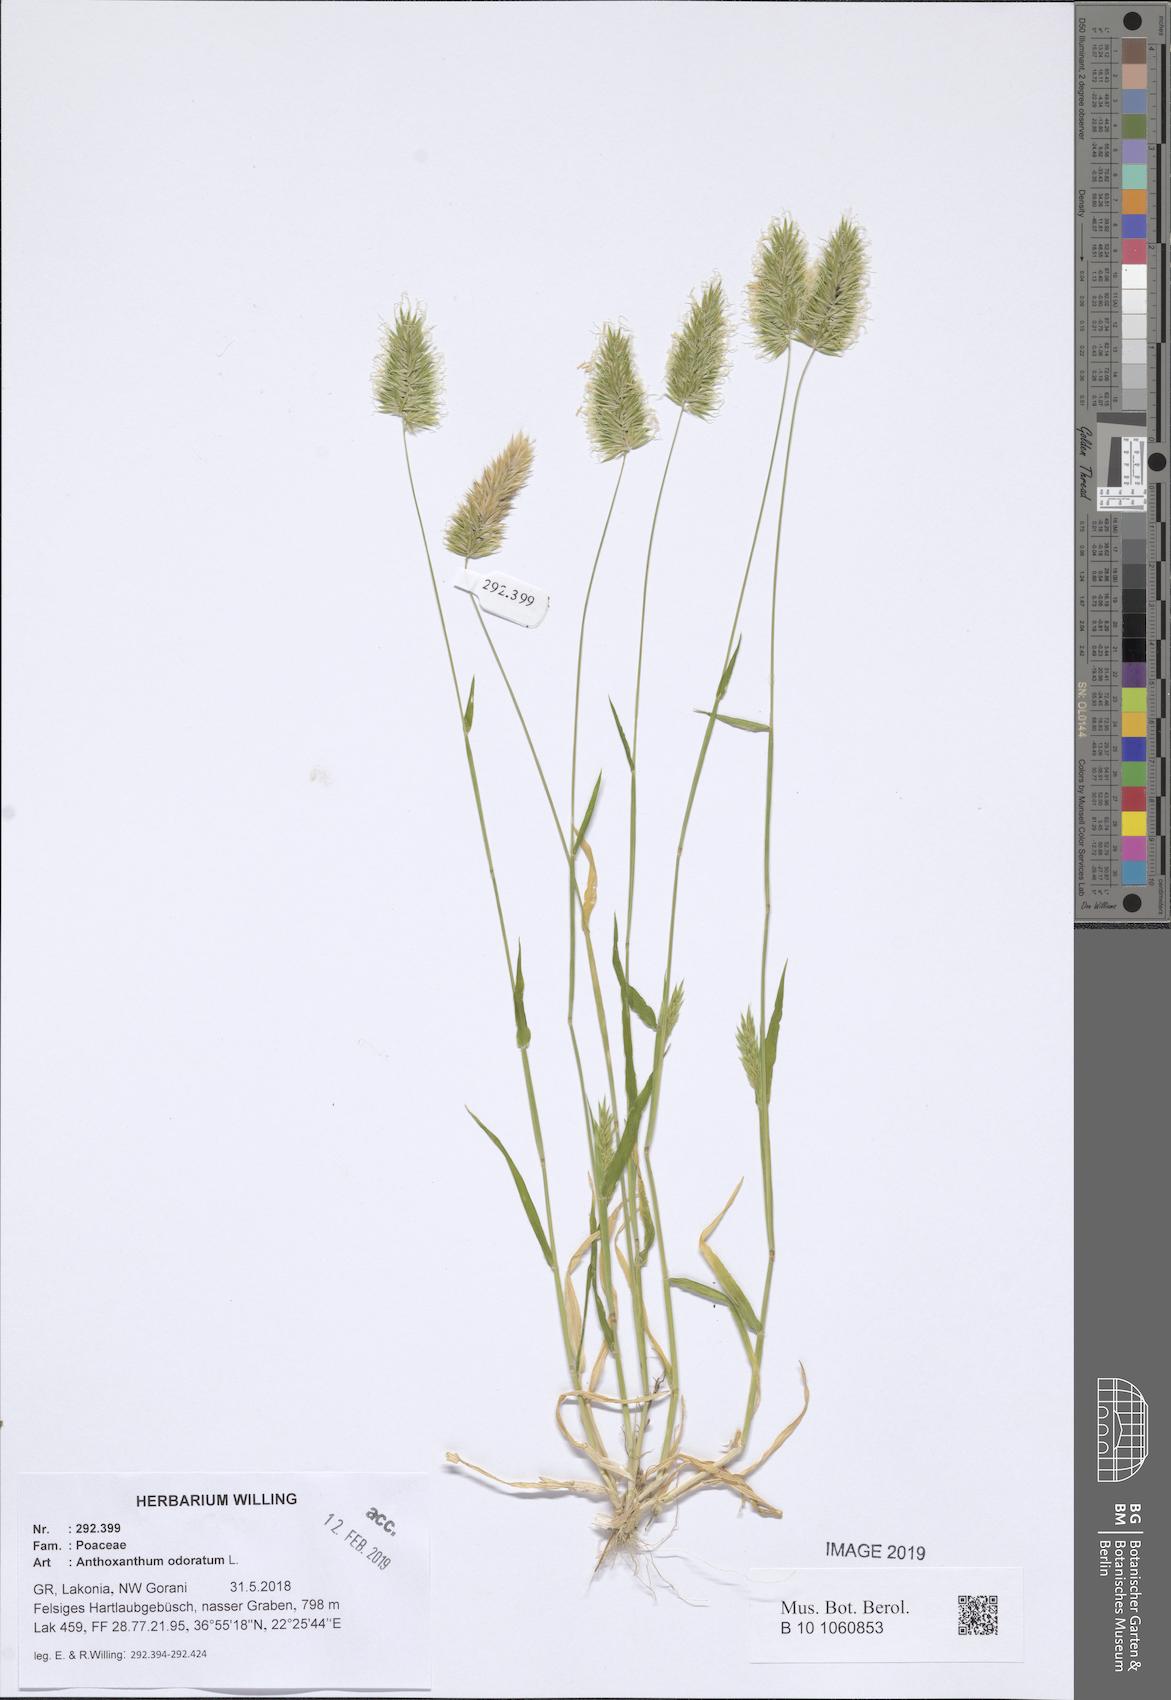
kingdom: Plantae
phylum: Tracheophyta
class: Liliopsida
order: Poales
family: Poaceae
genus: Anthoxanthum
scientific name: Anthoxanthum odoratum
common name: Sweet vernalgrass
